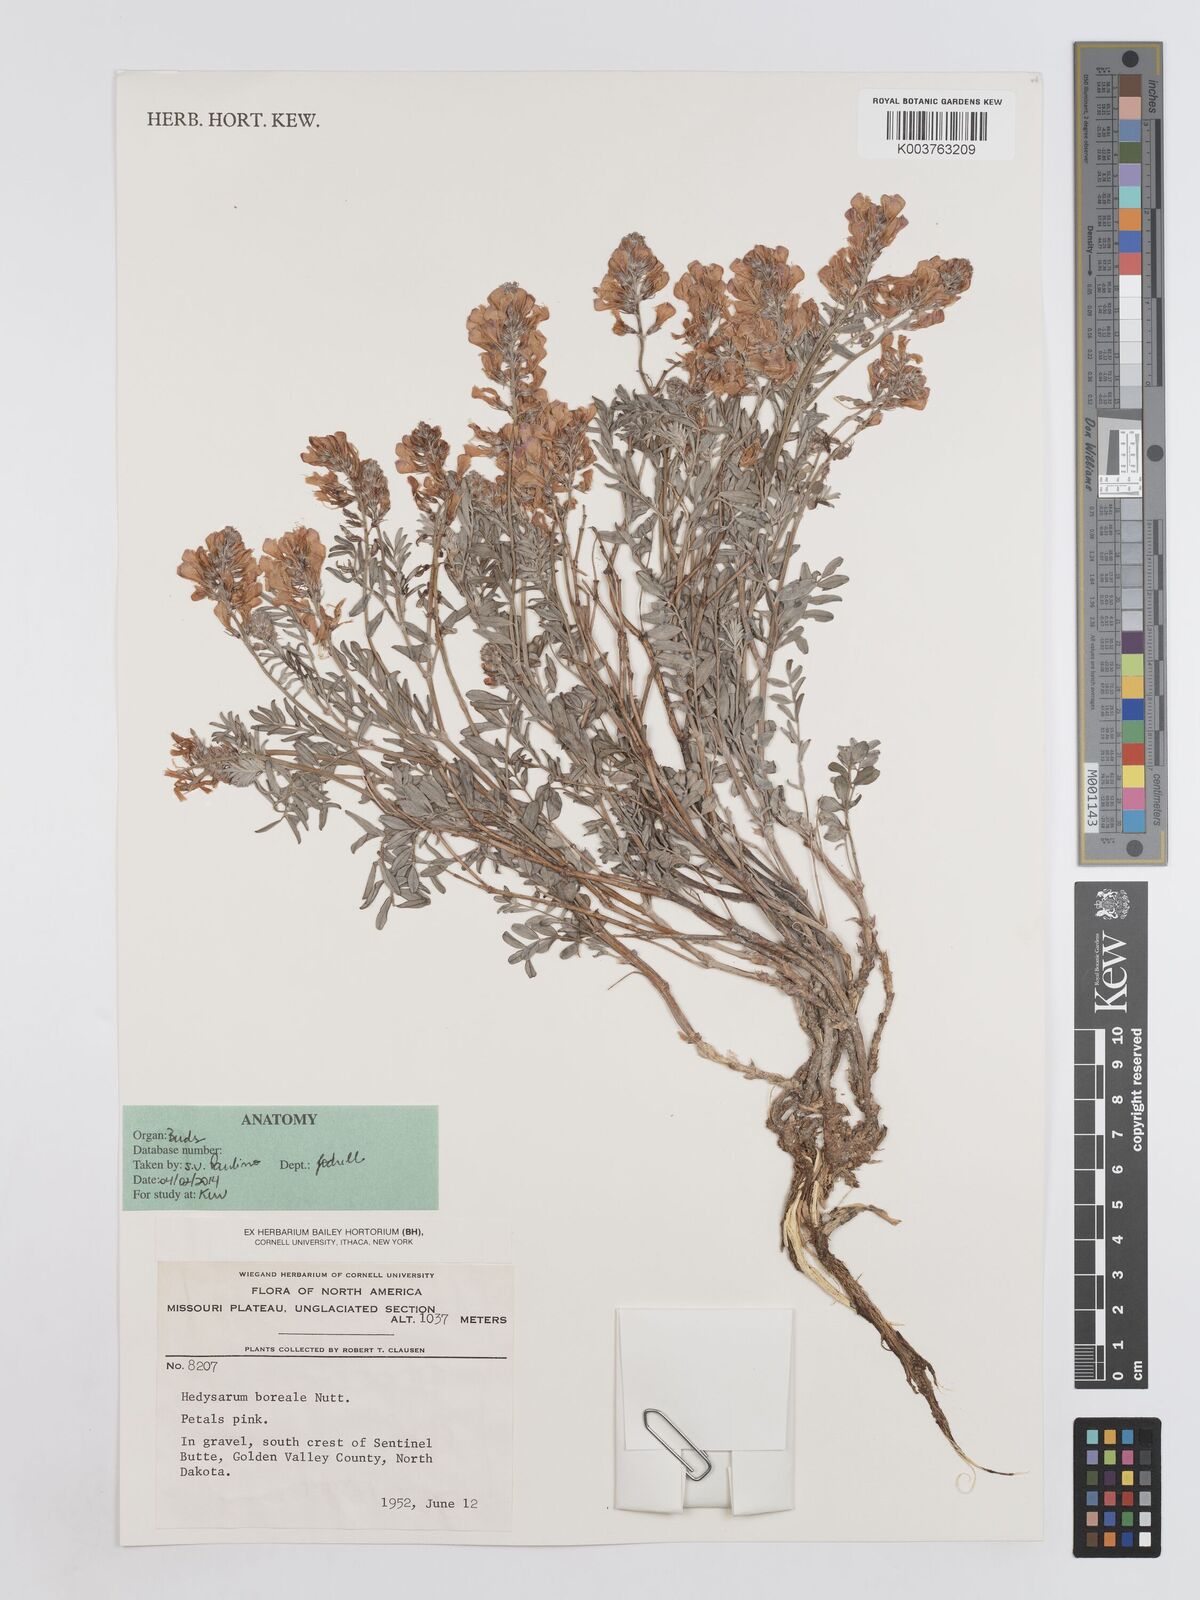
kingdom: Plantae
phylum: Tracheophyta
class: Magnoliopsida
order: Fabales
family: Fabaceae
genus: Hedysarum
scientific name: Hedysarum boreale
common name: Northern sweet-vetch
